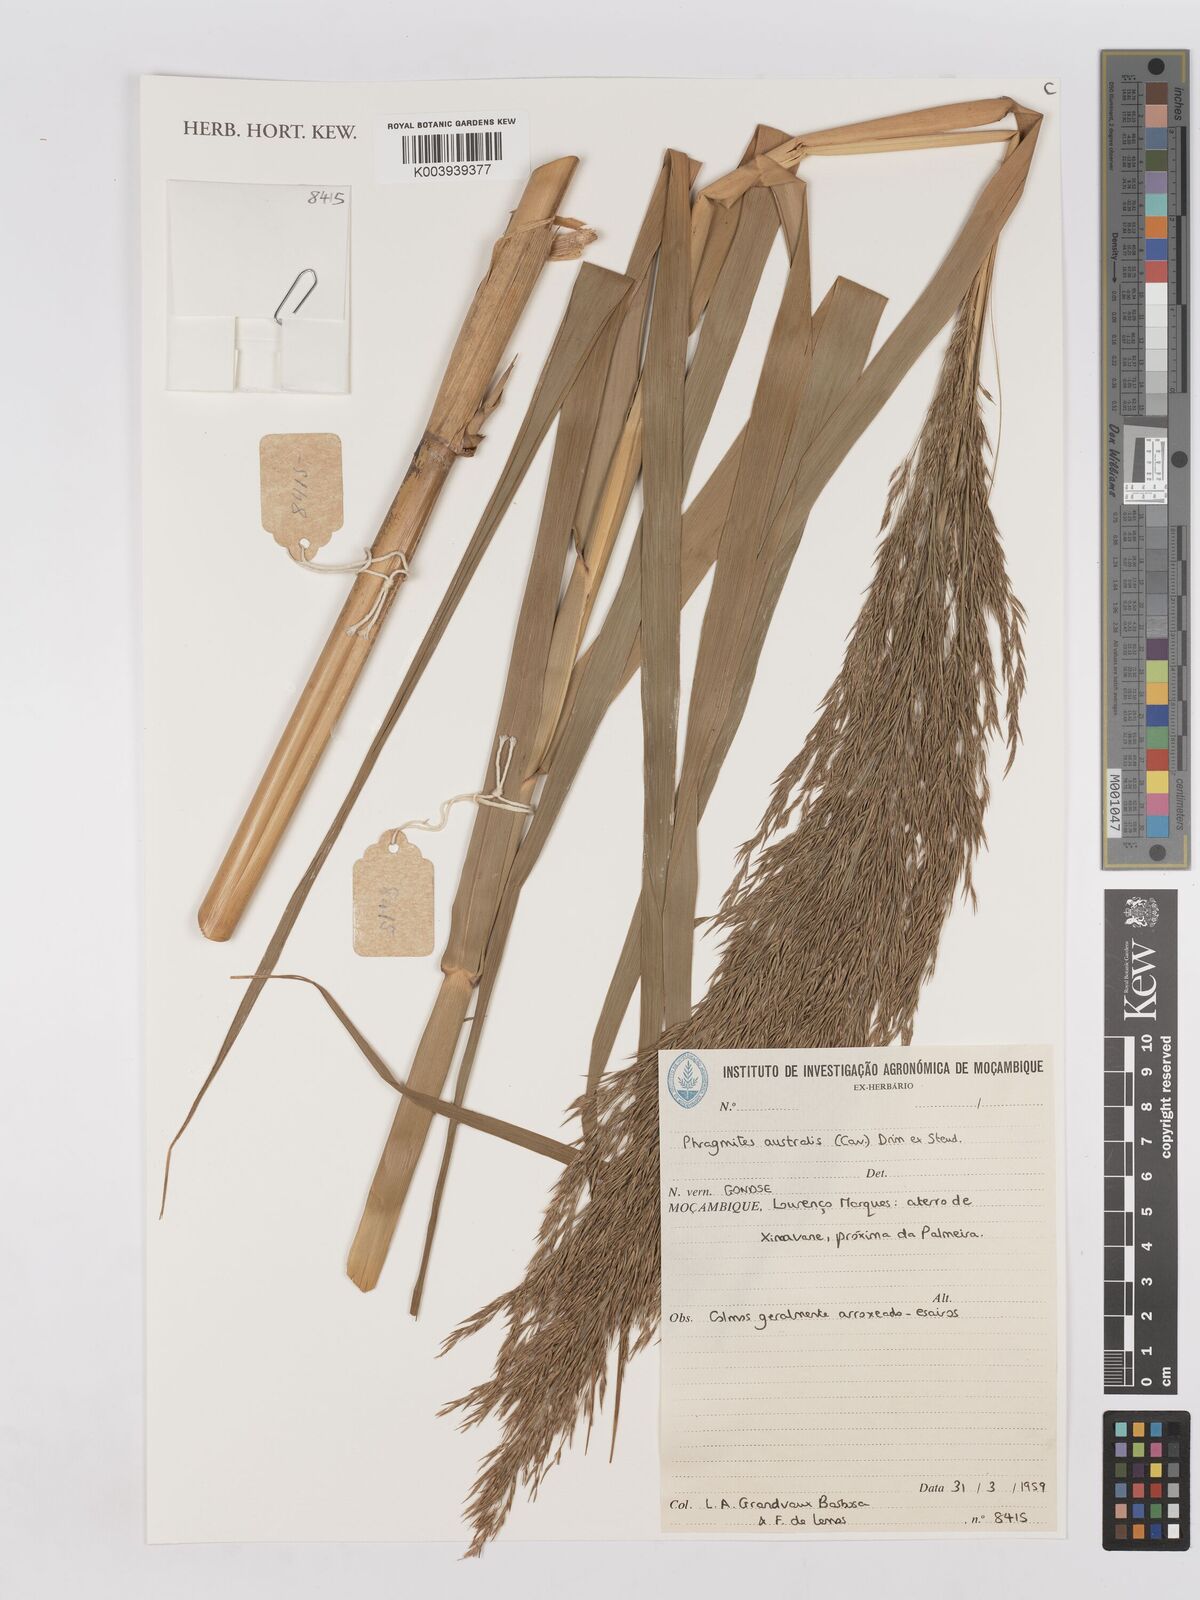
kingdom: Plantae
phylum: Tracheophyta
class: Liliopsida
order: Poales
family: Poaceae
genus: Phragmites
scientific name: Phragmites australis
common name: Common reed
